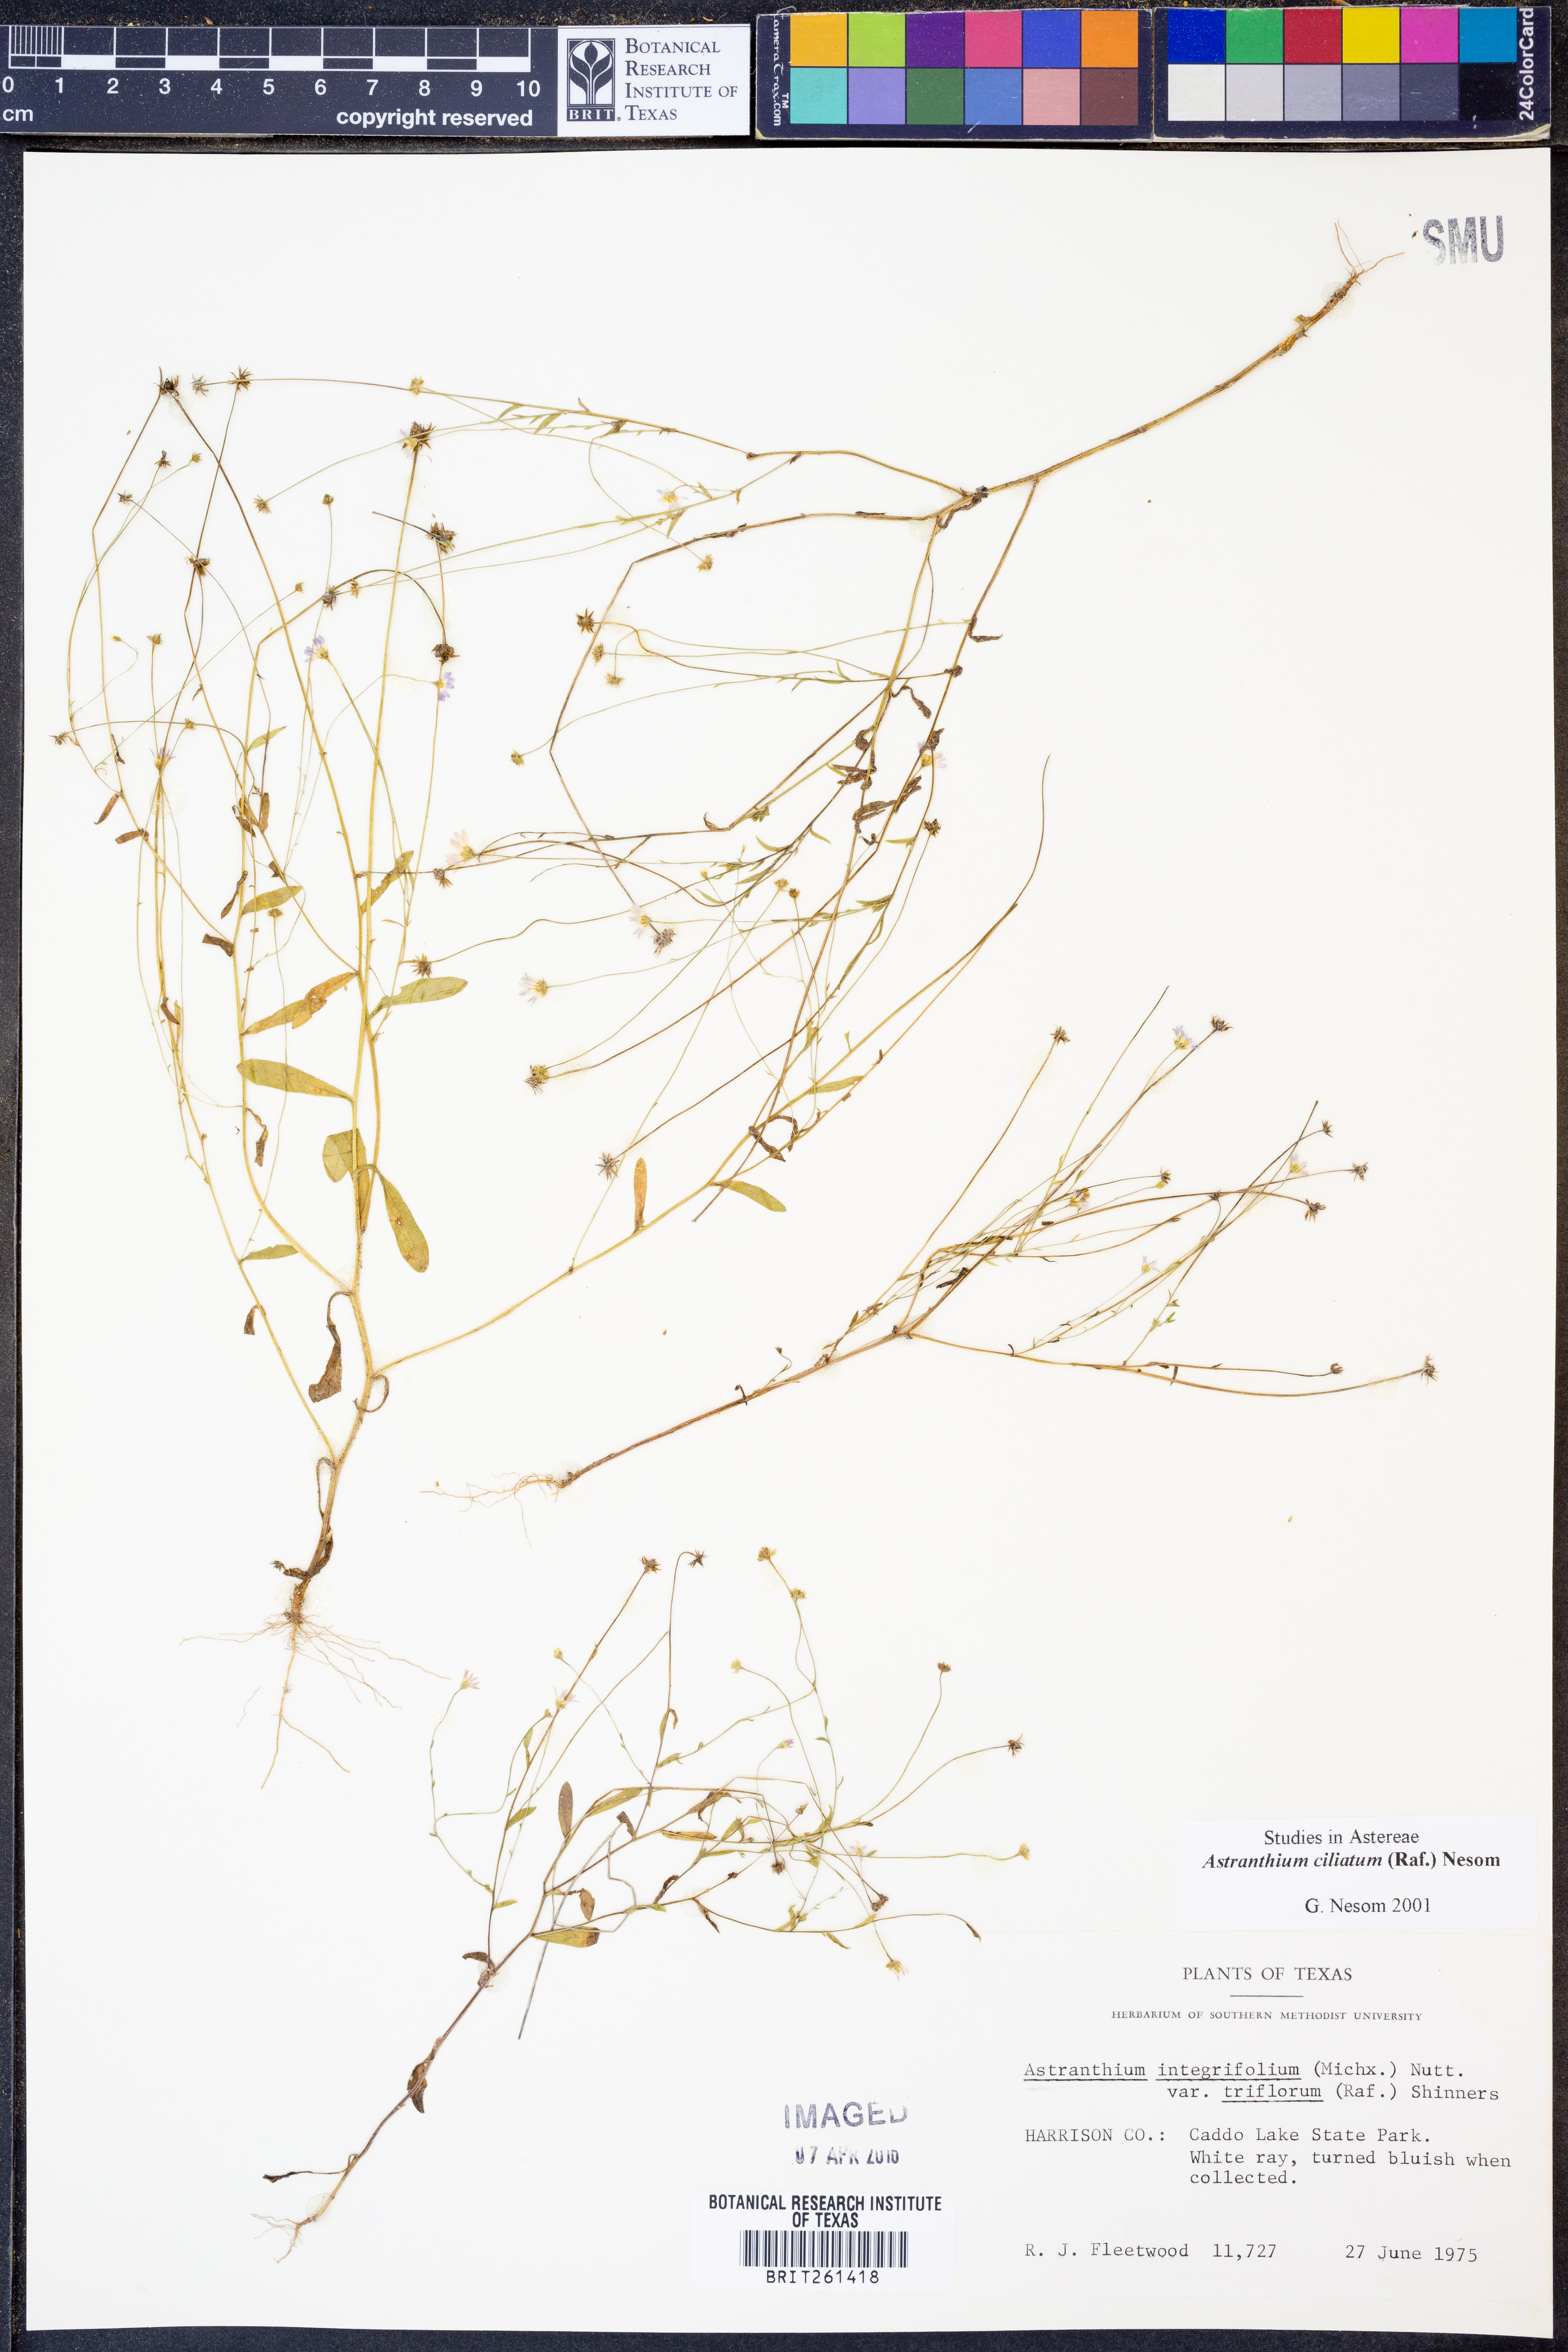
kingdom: Plantae
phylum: Tracheophyta
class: Magnoliopsida
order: Asterales
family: Asteraceae
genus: Astranthium
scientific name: Astranthium ciliatum
